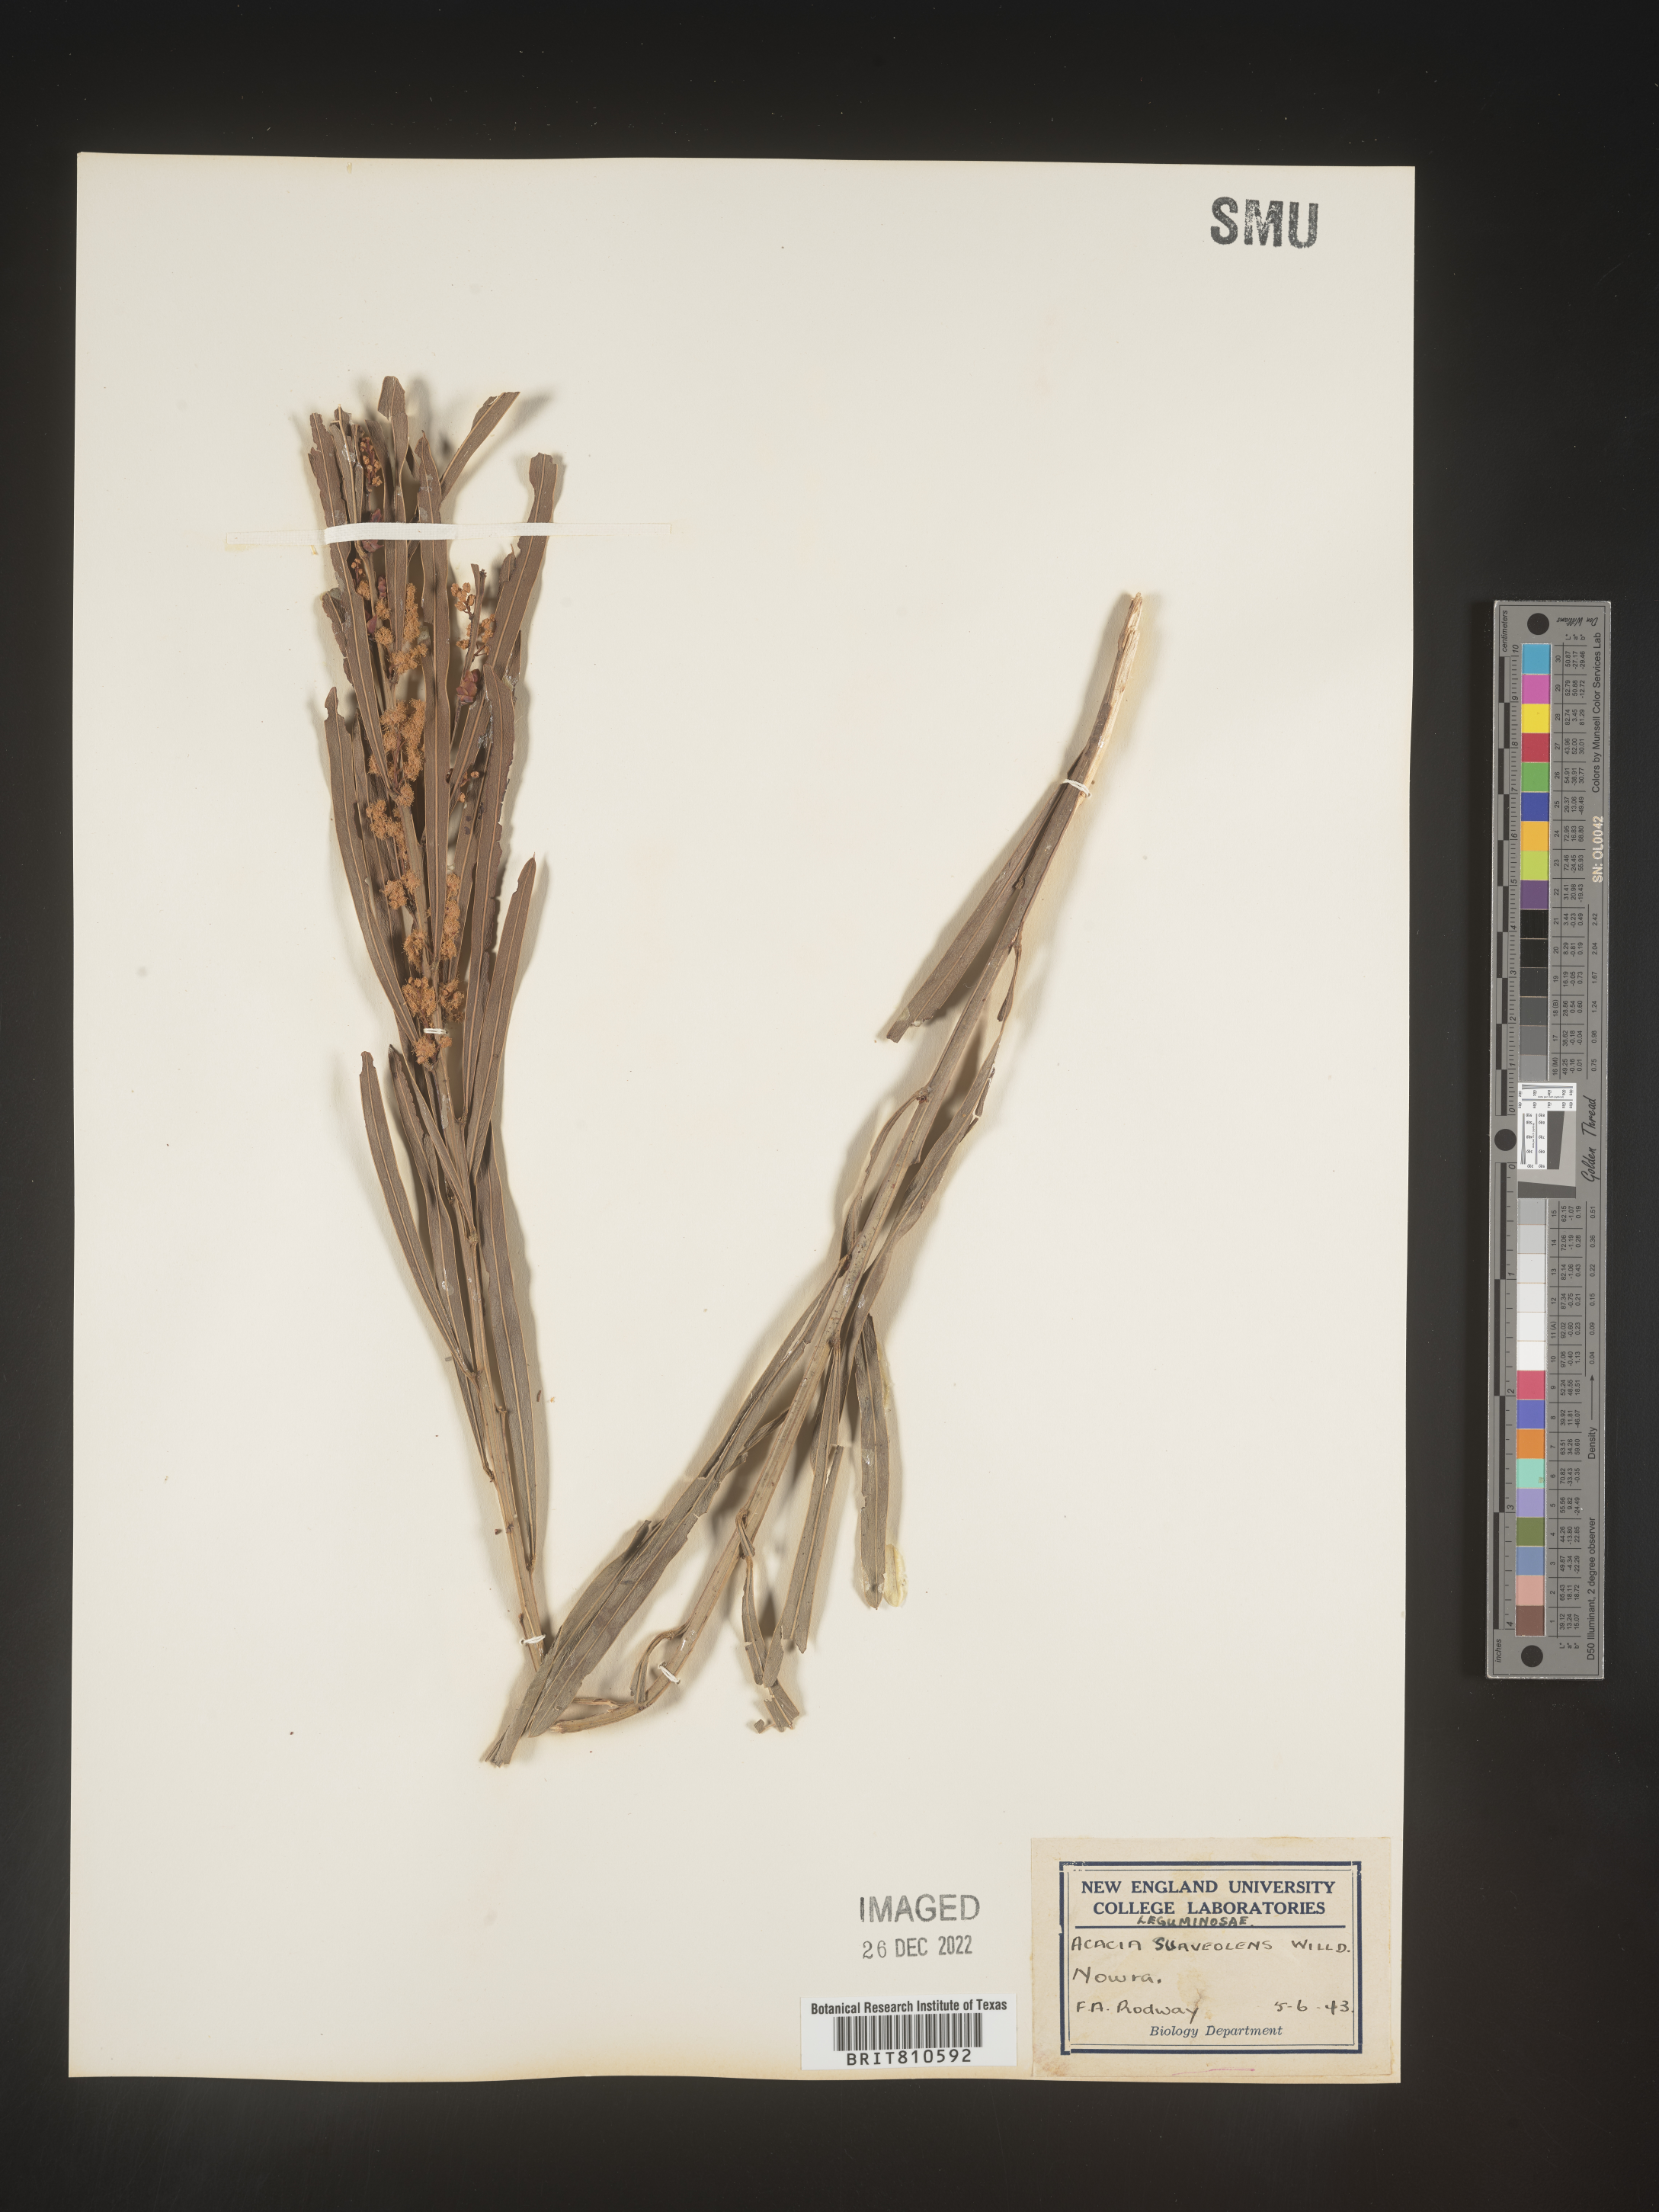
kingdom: Plantae
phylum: Tracheophyta
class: Magnoliopsida
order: Fabales
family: Fabaceae
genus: Acacia
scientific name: Acacia
